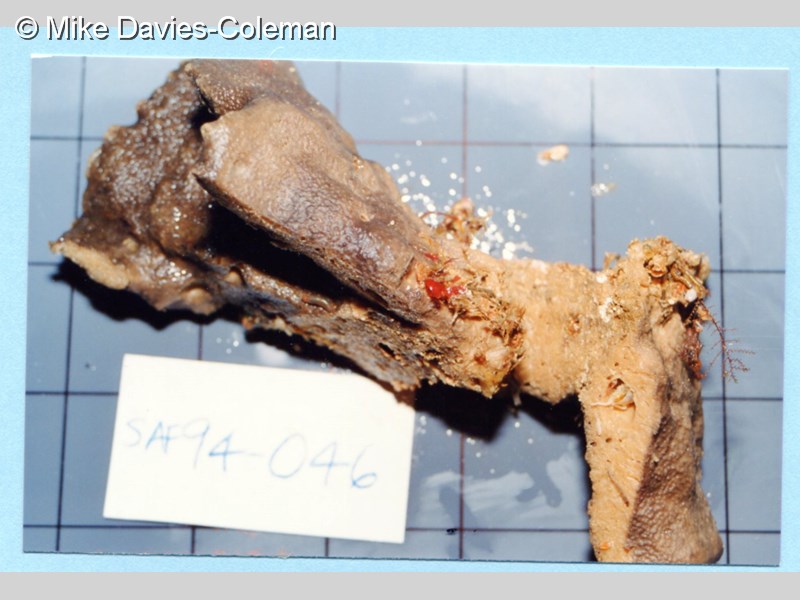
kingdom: Animalia
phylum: Porifera
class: Demospongiae
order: Dictyoceratida
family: Irciniidae
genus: Psammocinia
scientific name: Psammocinia hawere
